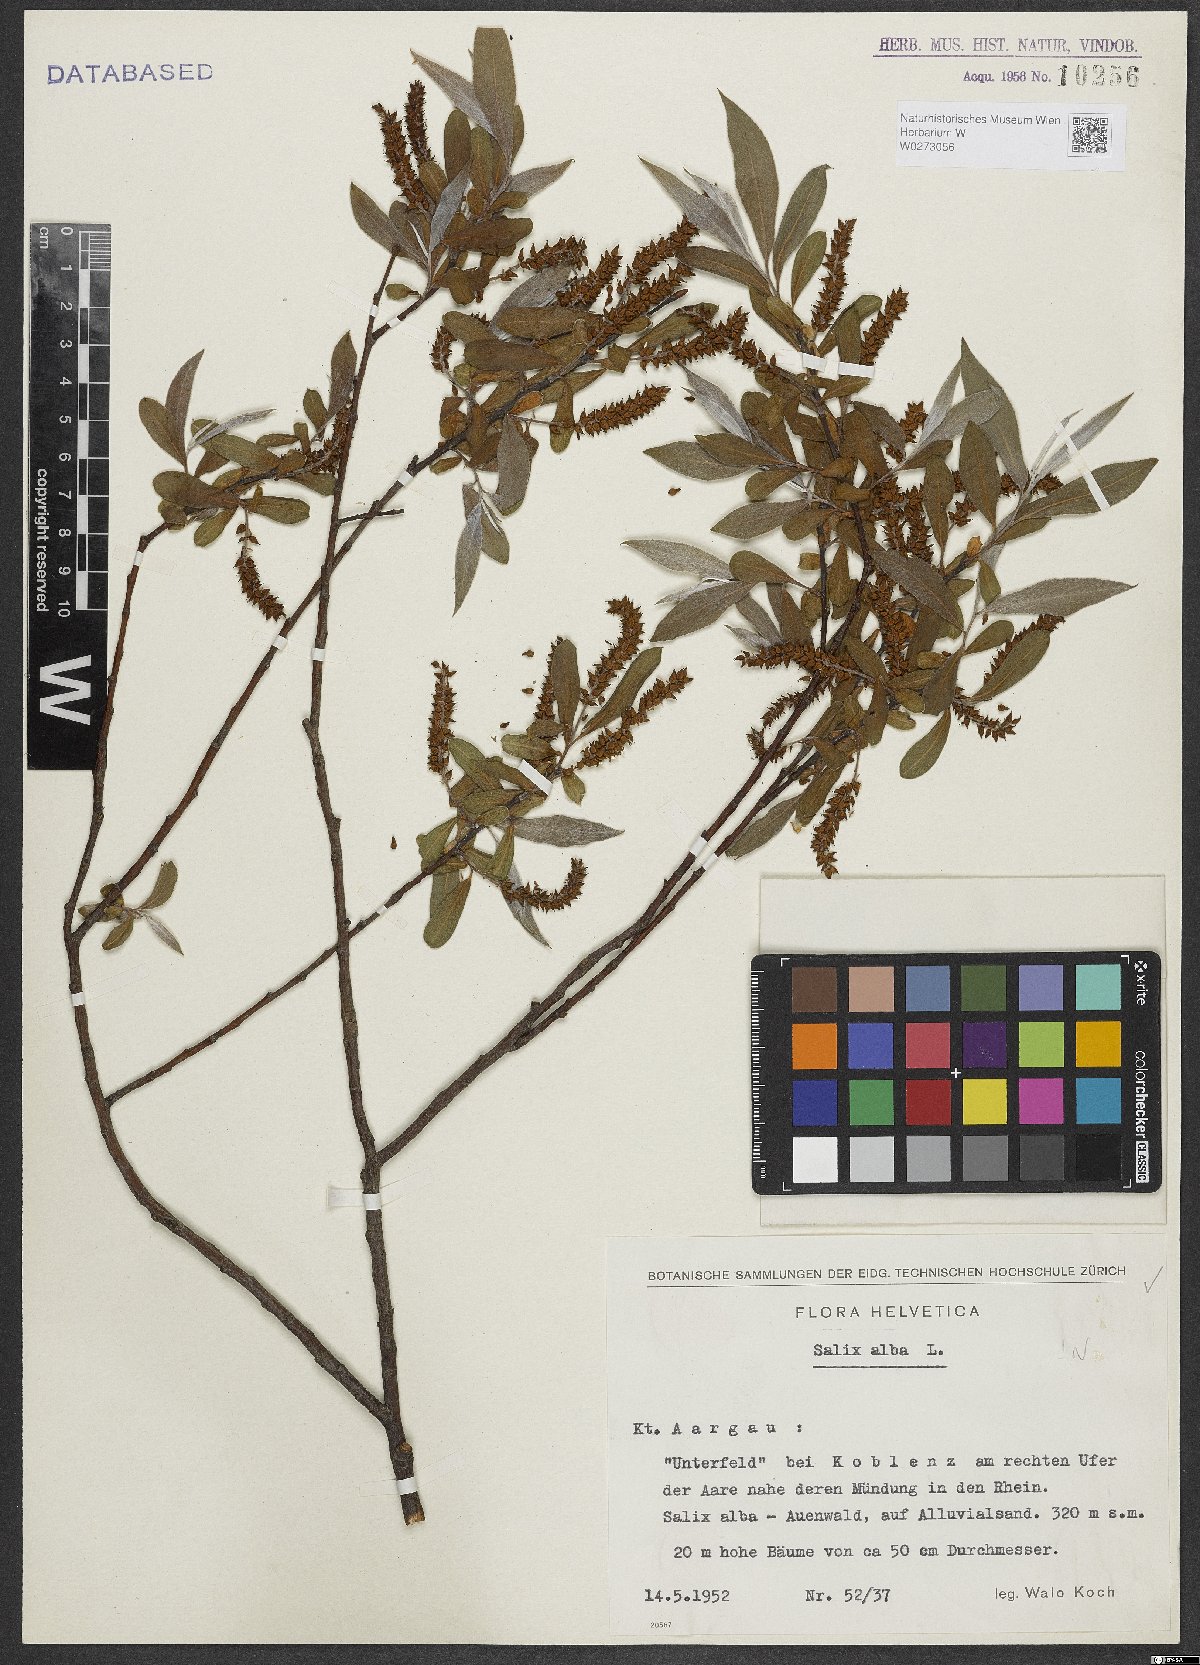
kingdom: Plantae
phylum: Tracheophyta
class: Magnoliopsida
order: Malpighiales
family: Salicaceae
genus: Salix
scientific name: Salix alba
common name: White willow
